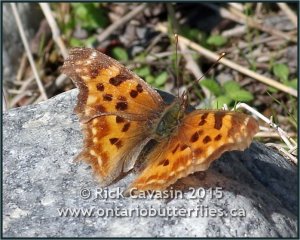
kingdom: Animalia
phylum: Arthropoda
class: Insecta
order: Lepidoptera
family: Nymphalidae
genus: Polygonia
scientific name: Polygonia satyrus
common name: Satyr Comma
